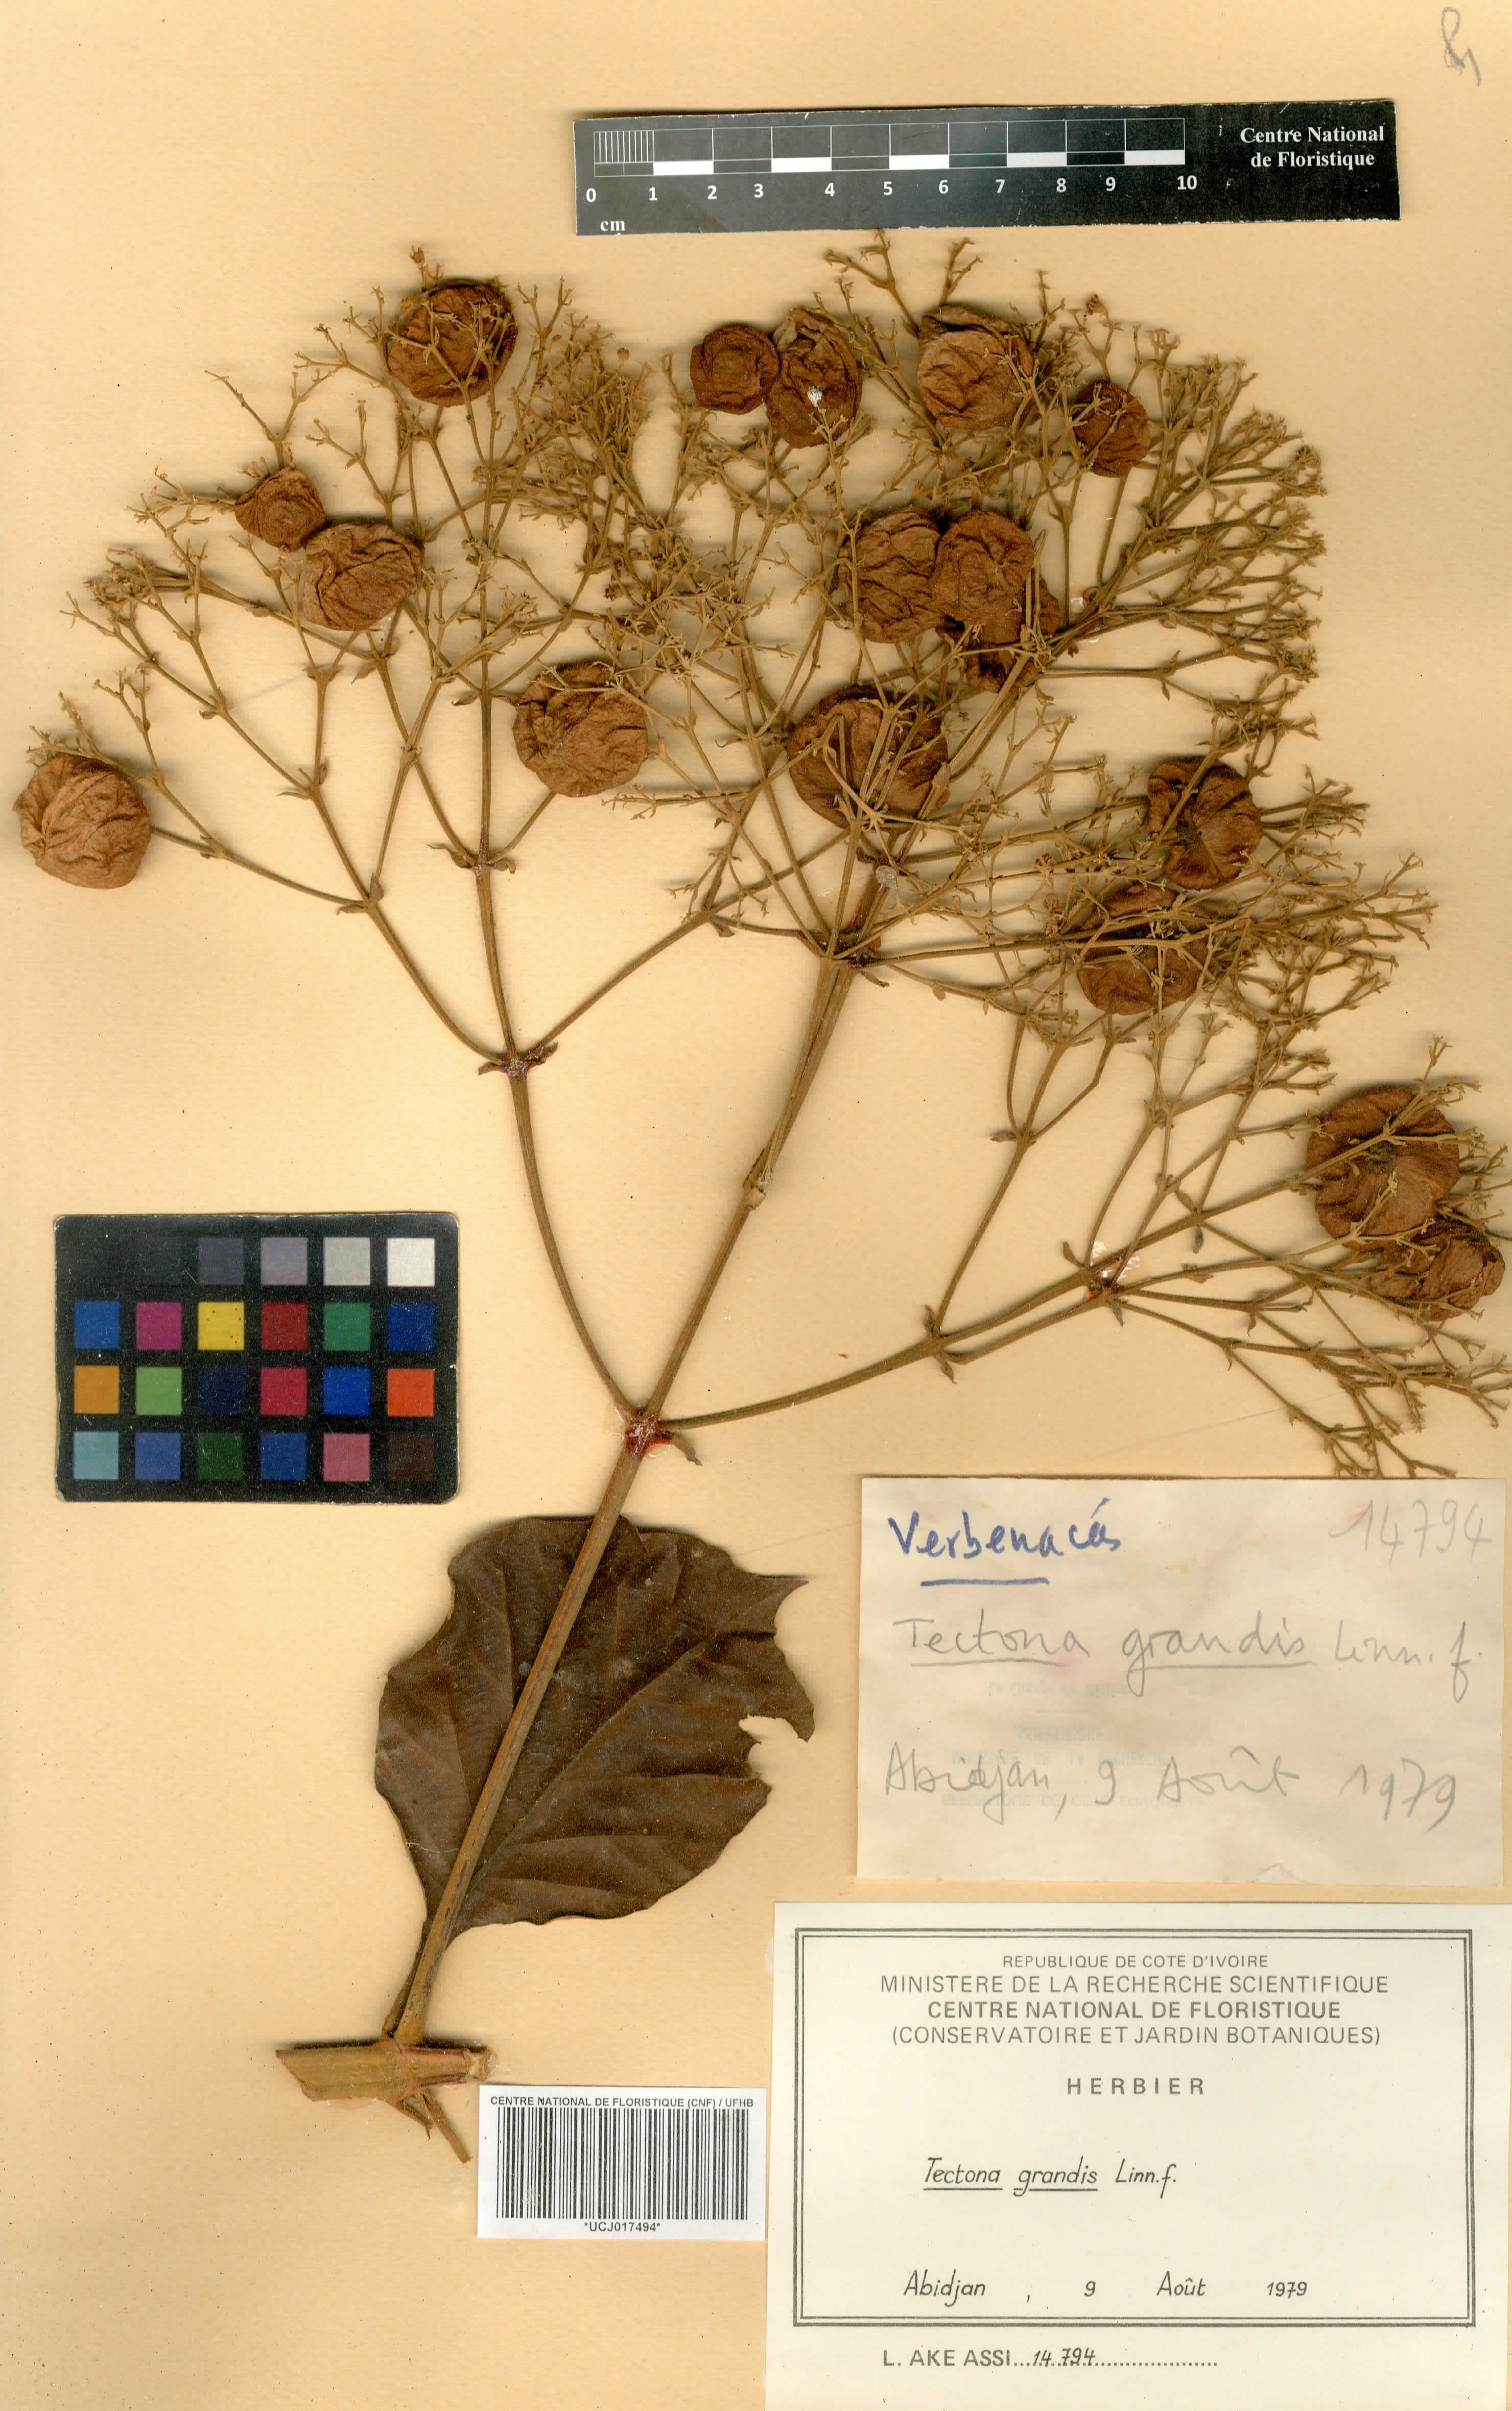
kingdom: Plantae
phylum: Tracheophyta
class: Magnoliopsida
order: Lamiales
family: Lamiaceae
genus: Tectona
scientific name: Tectona grandis
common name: Teak
